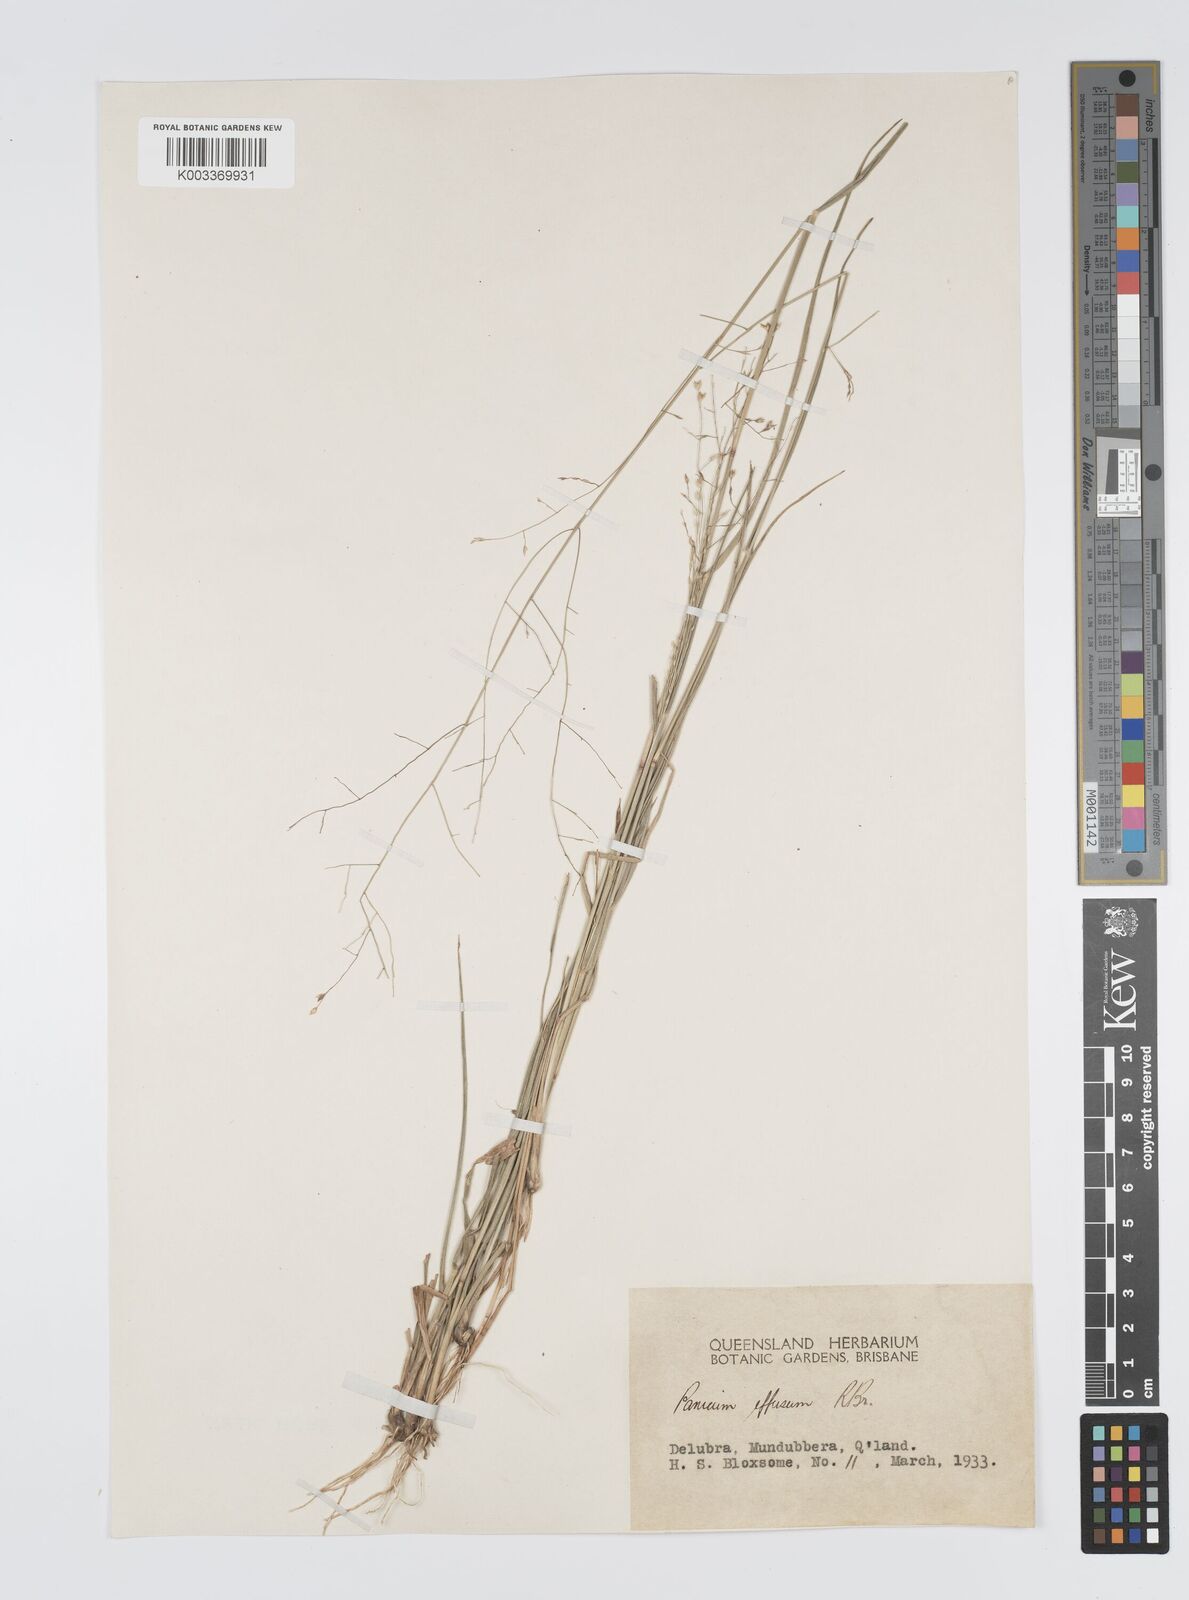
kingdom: Plantae
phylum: Tracheophyta
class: Liliopsida
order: Poales
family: Poaceae
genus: Panicum
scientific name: Panicum effusum
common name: Hairy panic grass
